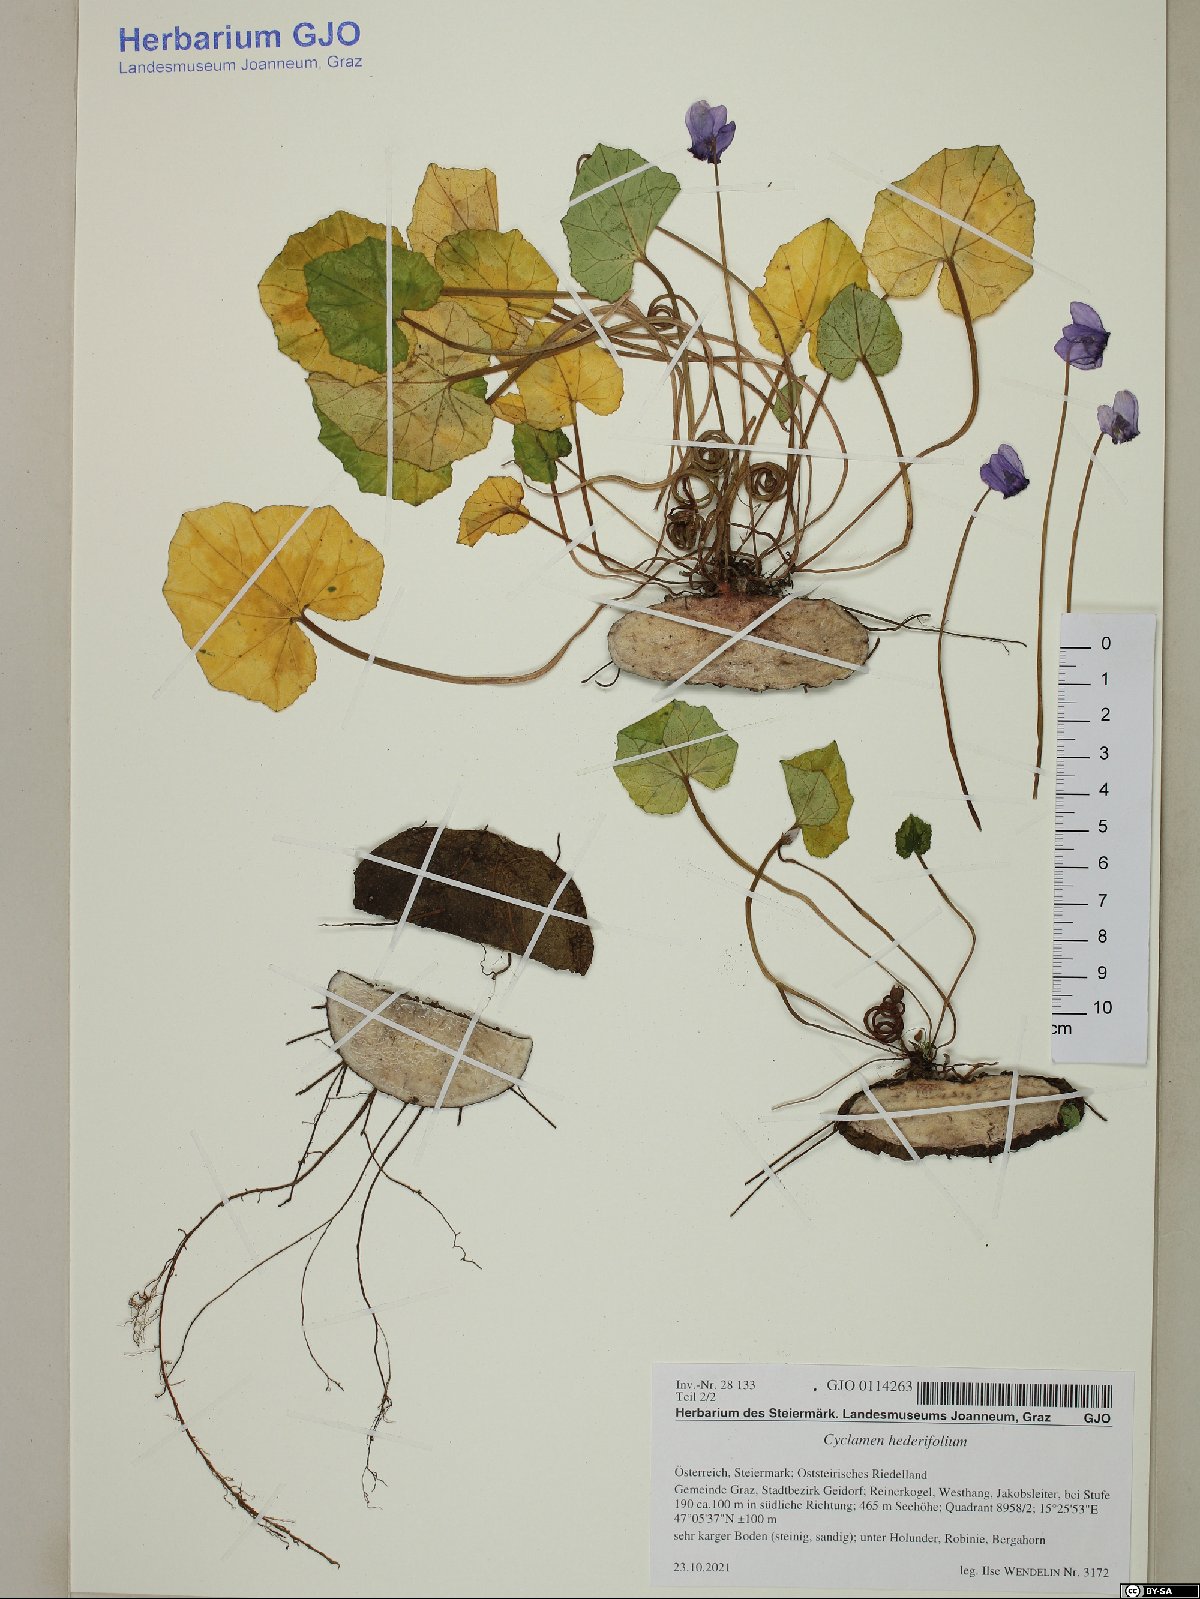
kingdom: Plantae
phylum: Tracheophyta
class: Magnoliopsida
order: Ericales
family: Primulaceae
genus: Cyclamen
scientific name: Cyclamen hederifolium
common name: Sowbread
